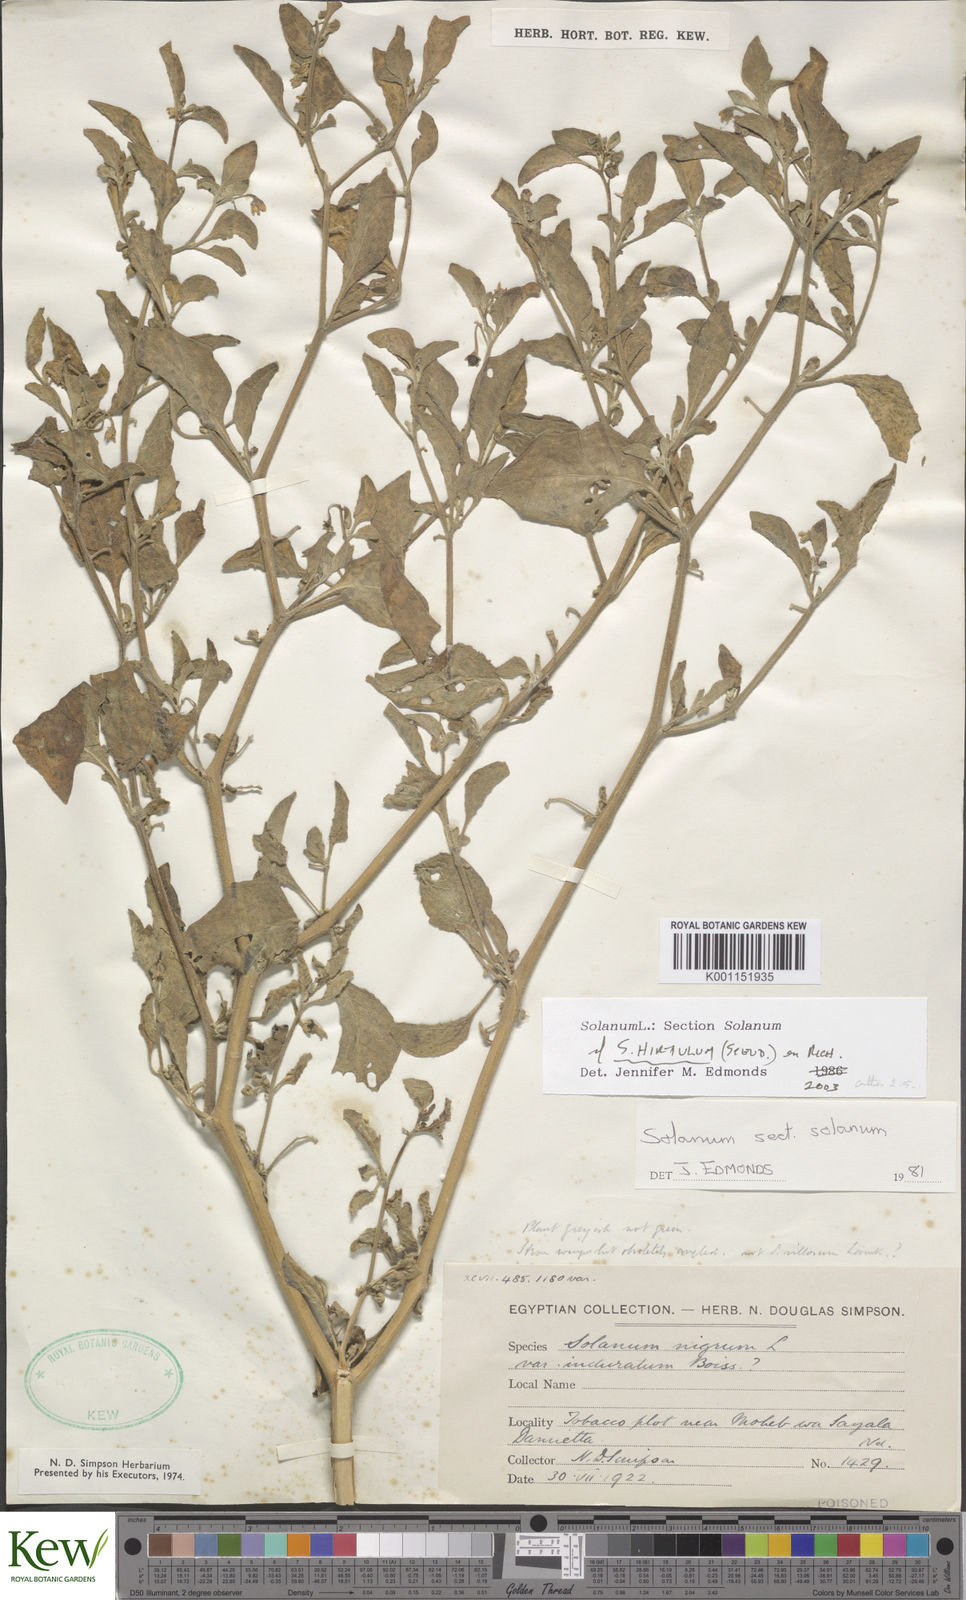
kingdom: Plantae
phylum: Tracheophyta
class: Magnoliopsida
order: Solanales
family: Solanaceae
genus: Solanum
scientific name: Solanum hirtulum
